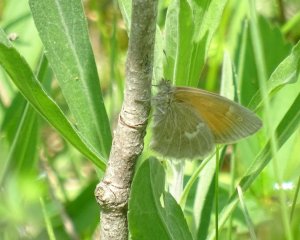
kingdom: Animalia
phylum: Arthropoda
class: Insecta
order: Lepidoptera
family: Nymphalidae
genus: Coenonympha
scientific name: Coenonympha tullia
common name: Large Heath
